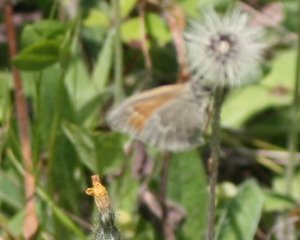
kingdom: Animalia
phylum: Arthropoda
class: Insecta
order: Lepidoptera
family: Nymphalidae
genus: Coenonympha
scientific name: Coenonympha tullia
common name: Large Heath
